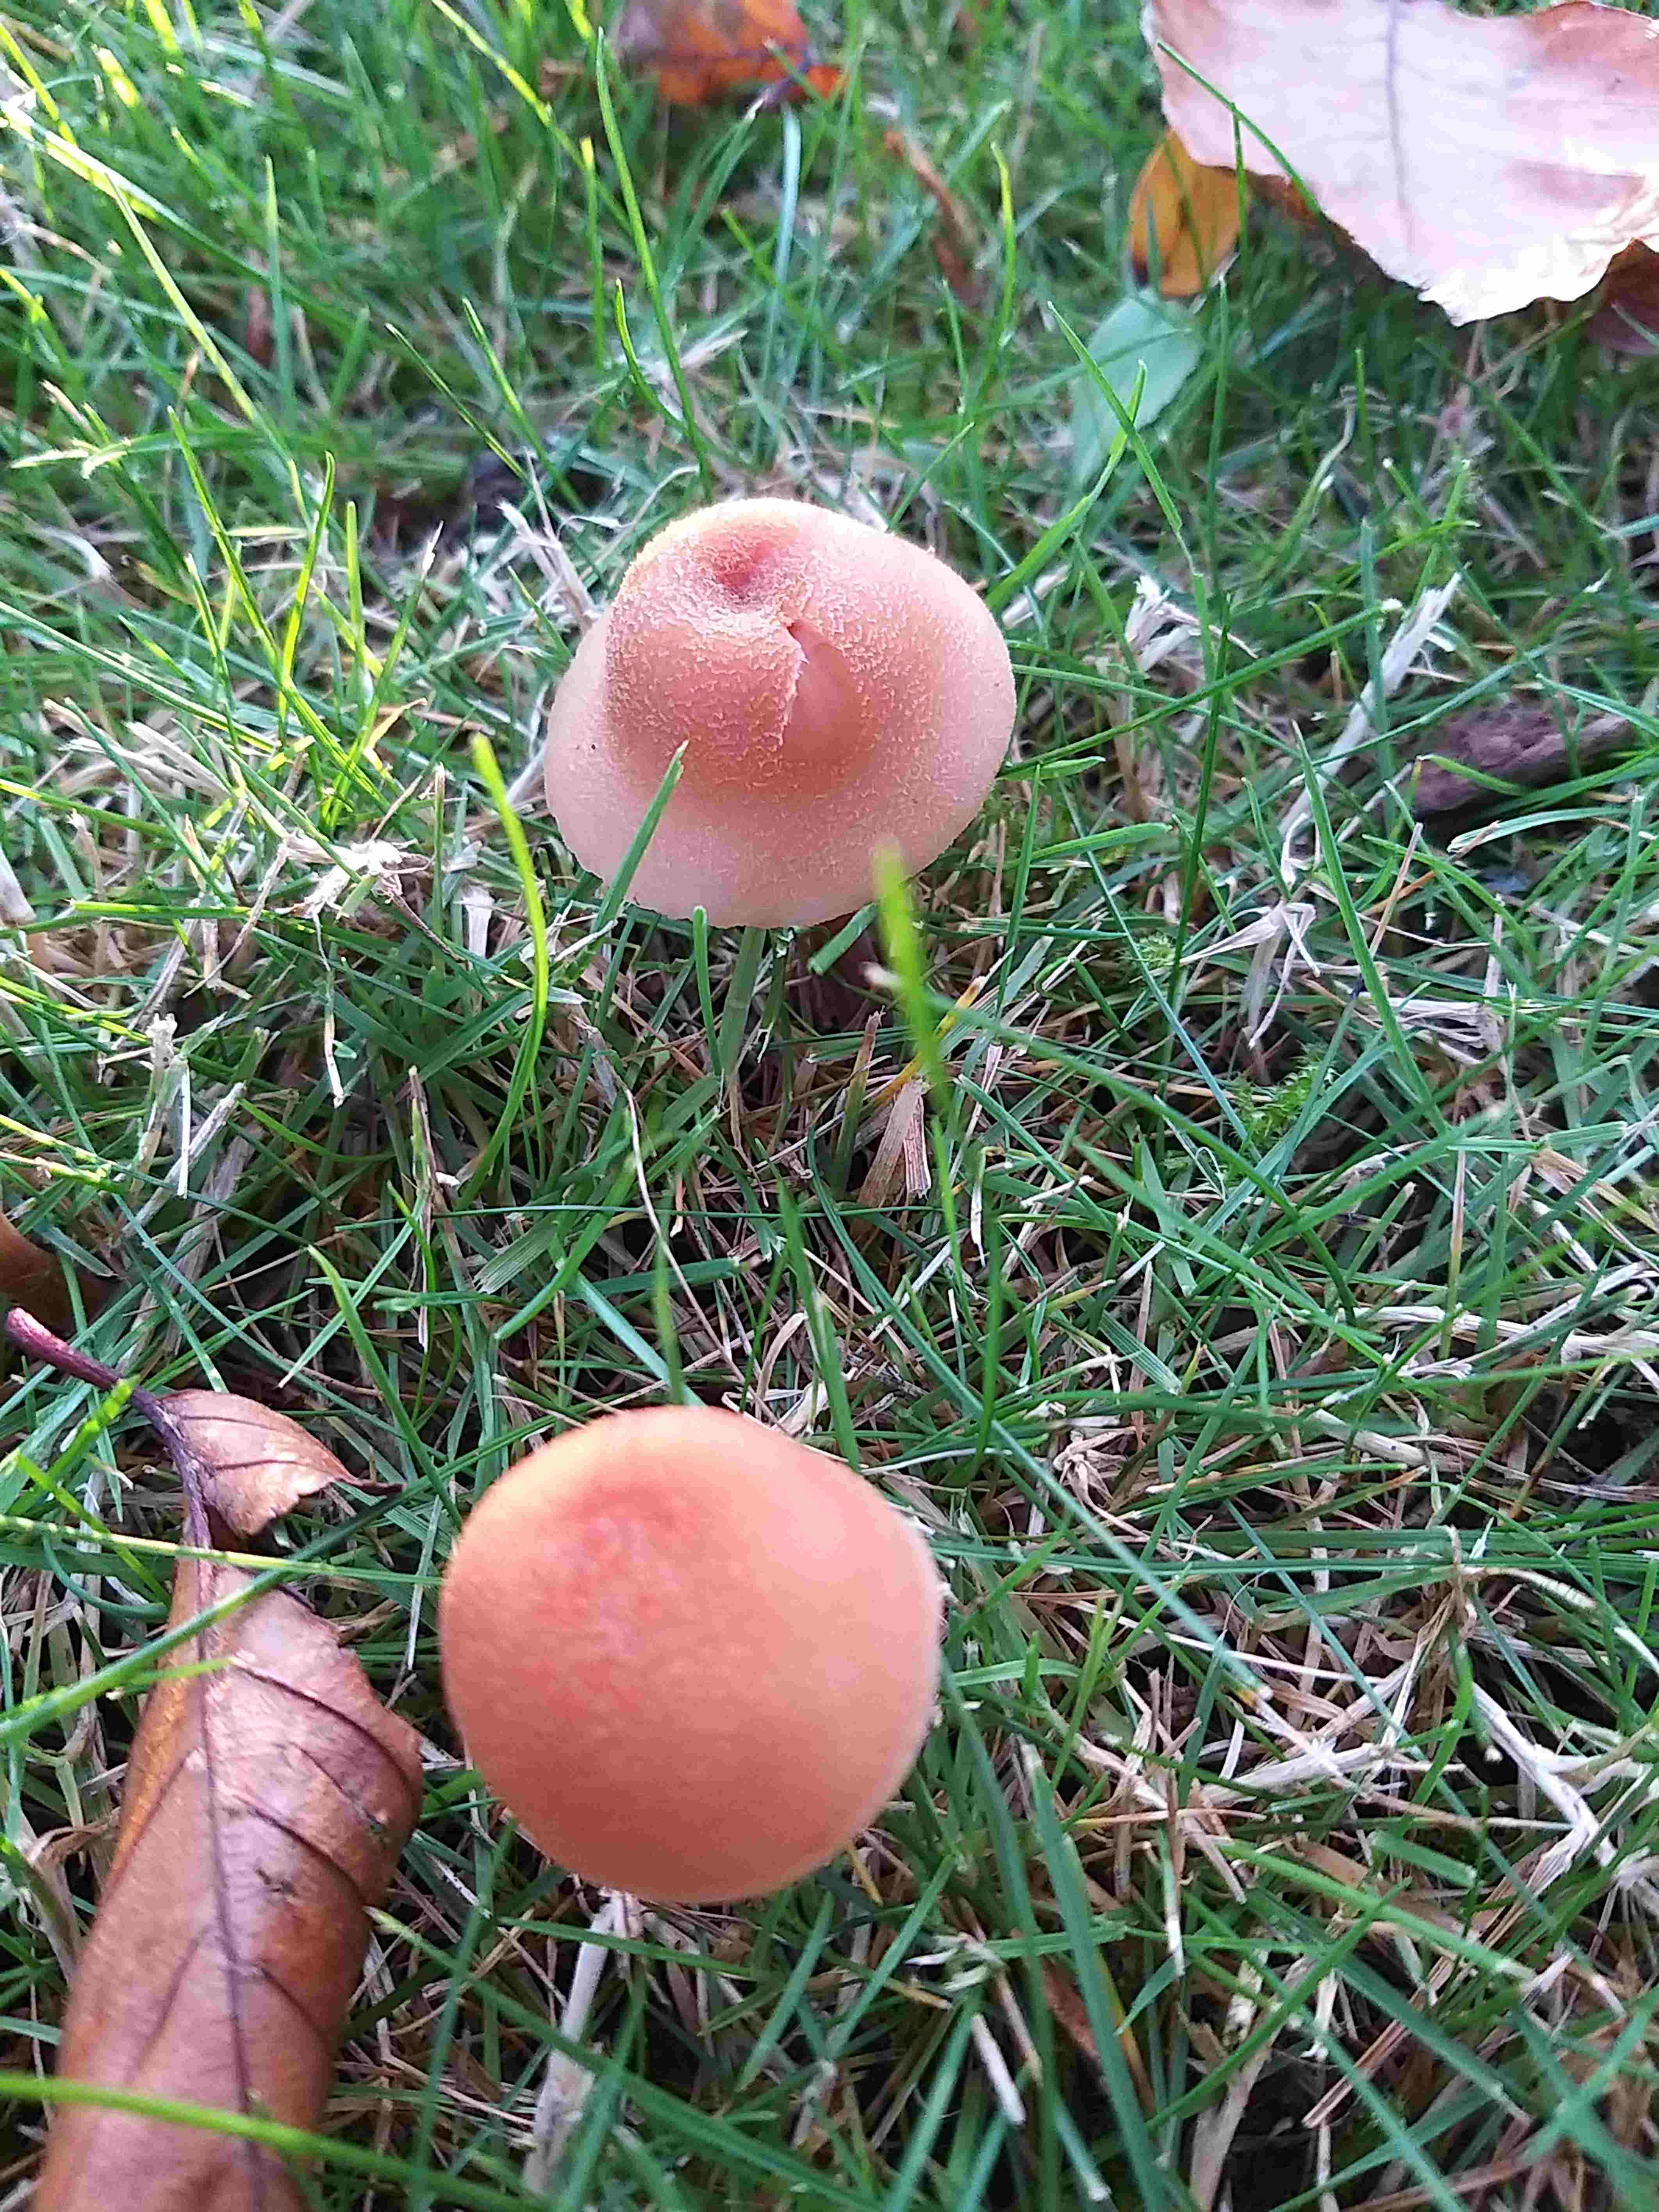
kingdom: Fungi
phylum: Basidiomycota
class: Agaricomycetes
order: Agaricales
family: Hydnangiaceae
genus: Laccaria
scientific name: Laccaria laccata
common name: rød ametysthat
